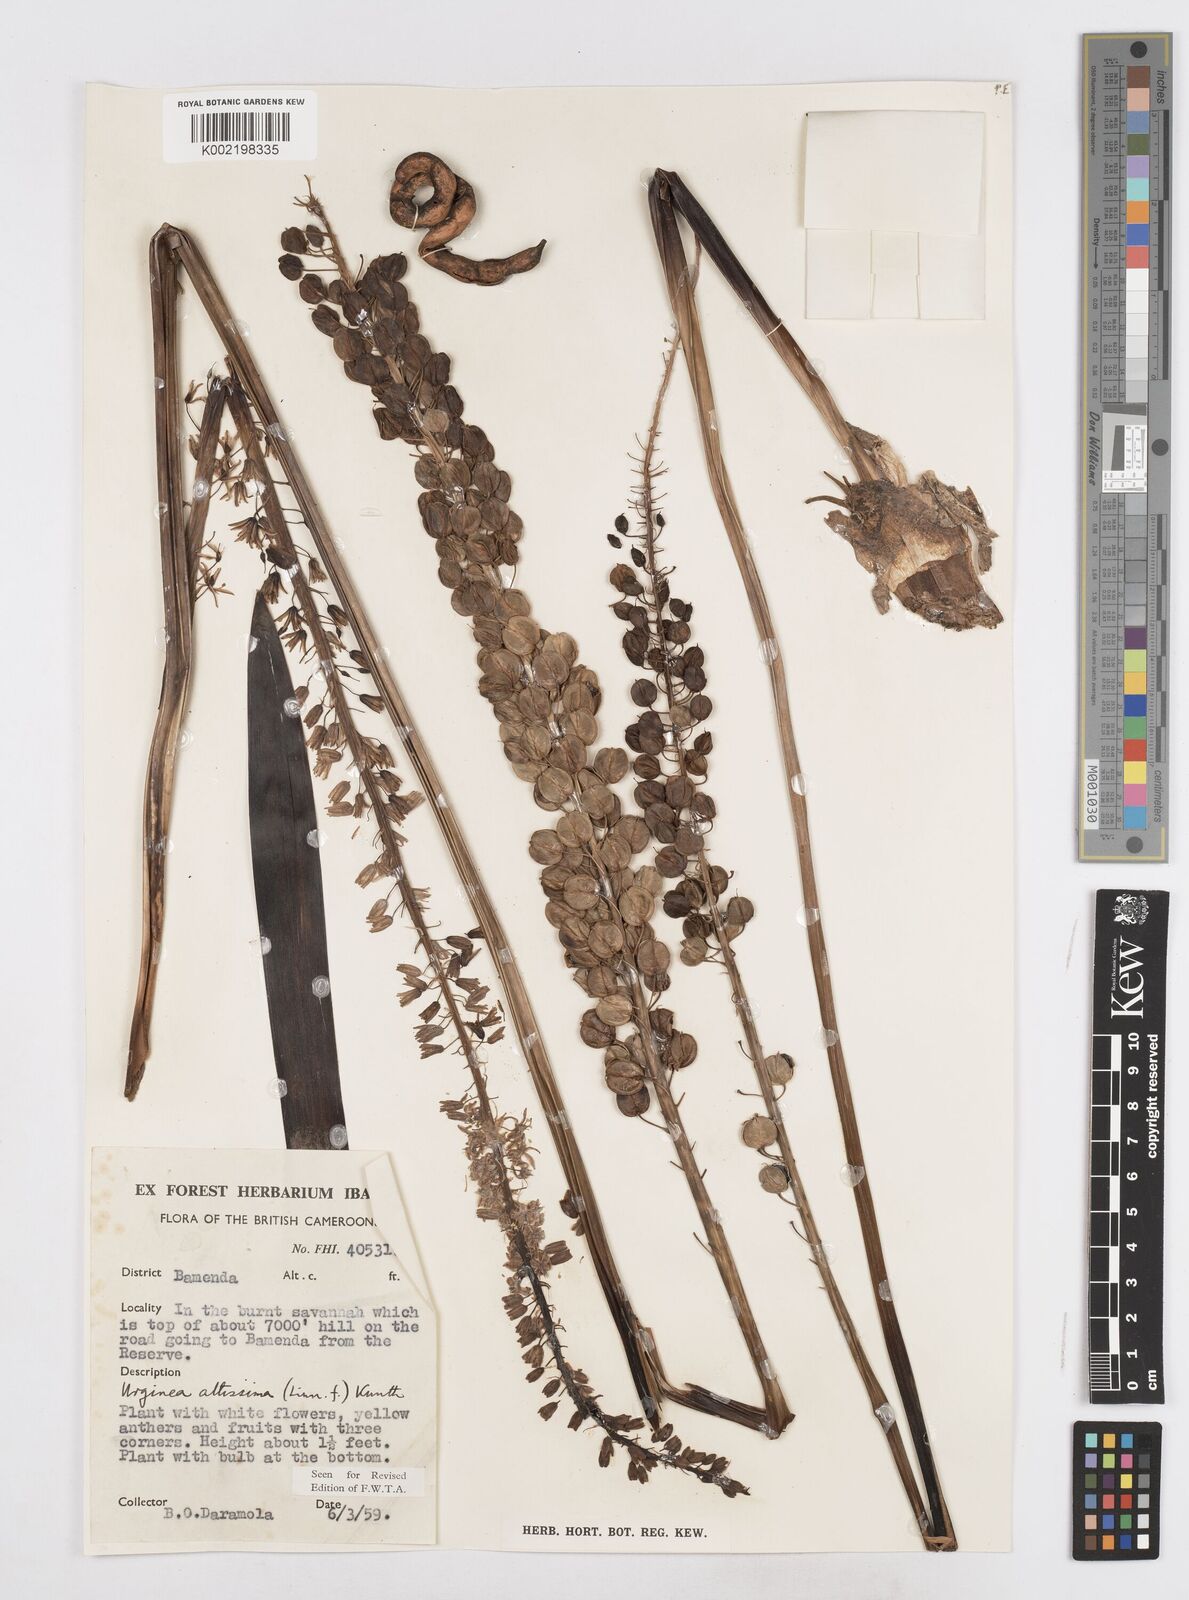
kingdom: Plantae
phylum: Tracheophyta
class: Liliopsida
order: Asparagales
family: Asparagaceae
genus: Drimia
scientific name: Drimia altissima
